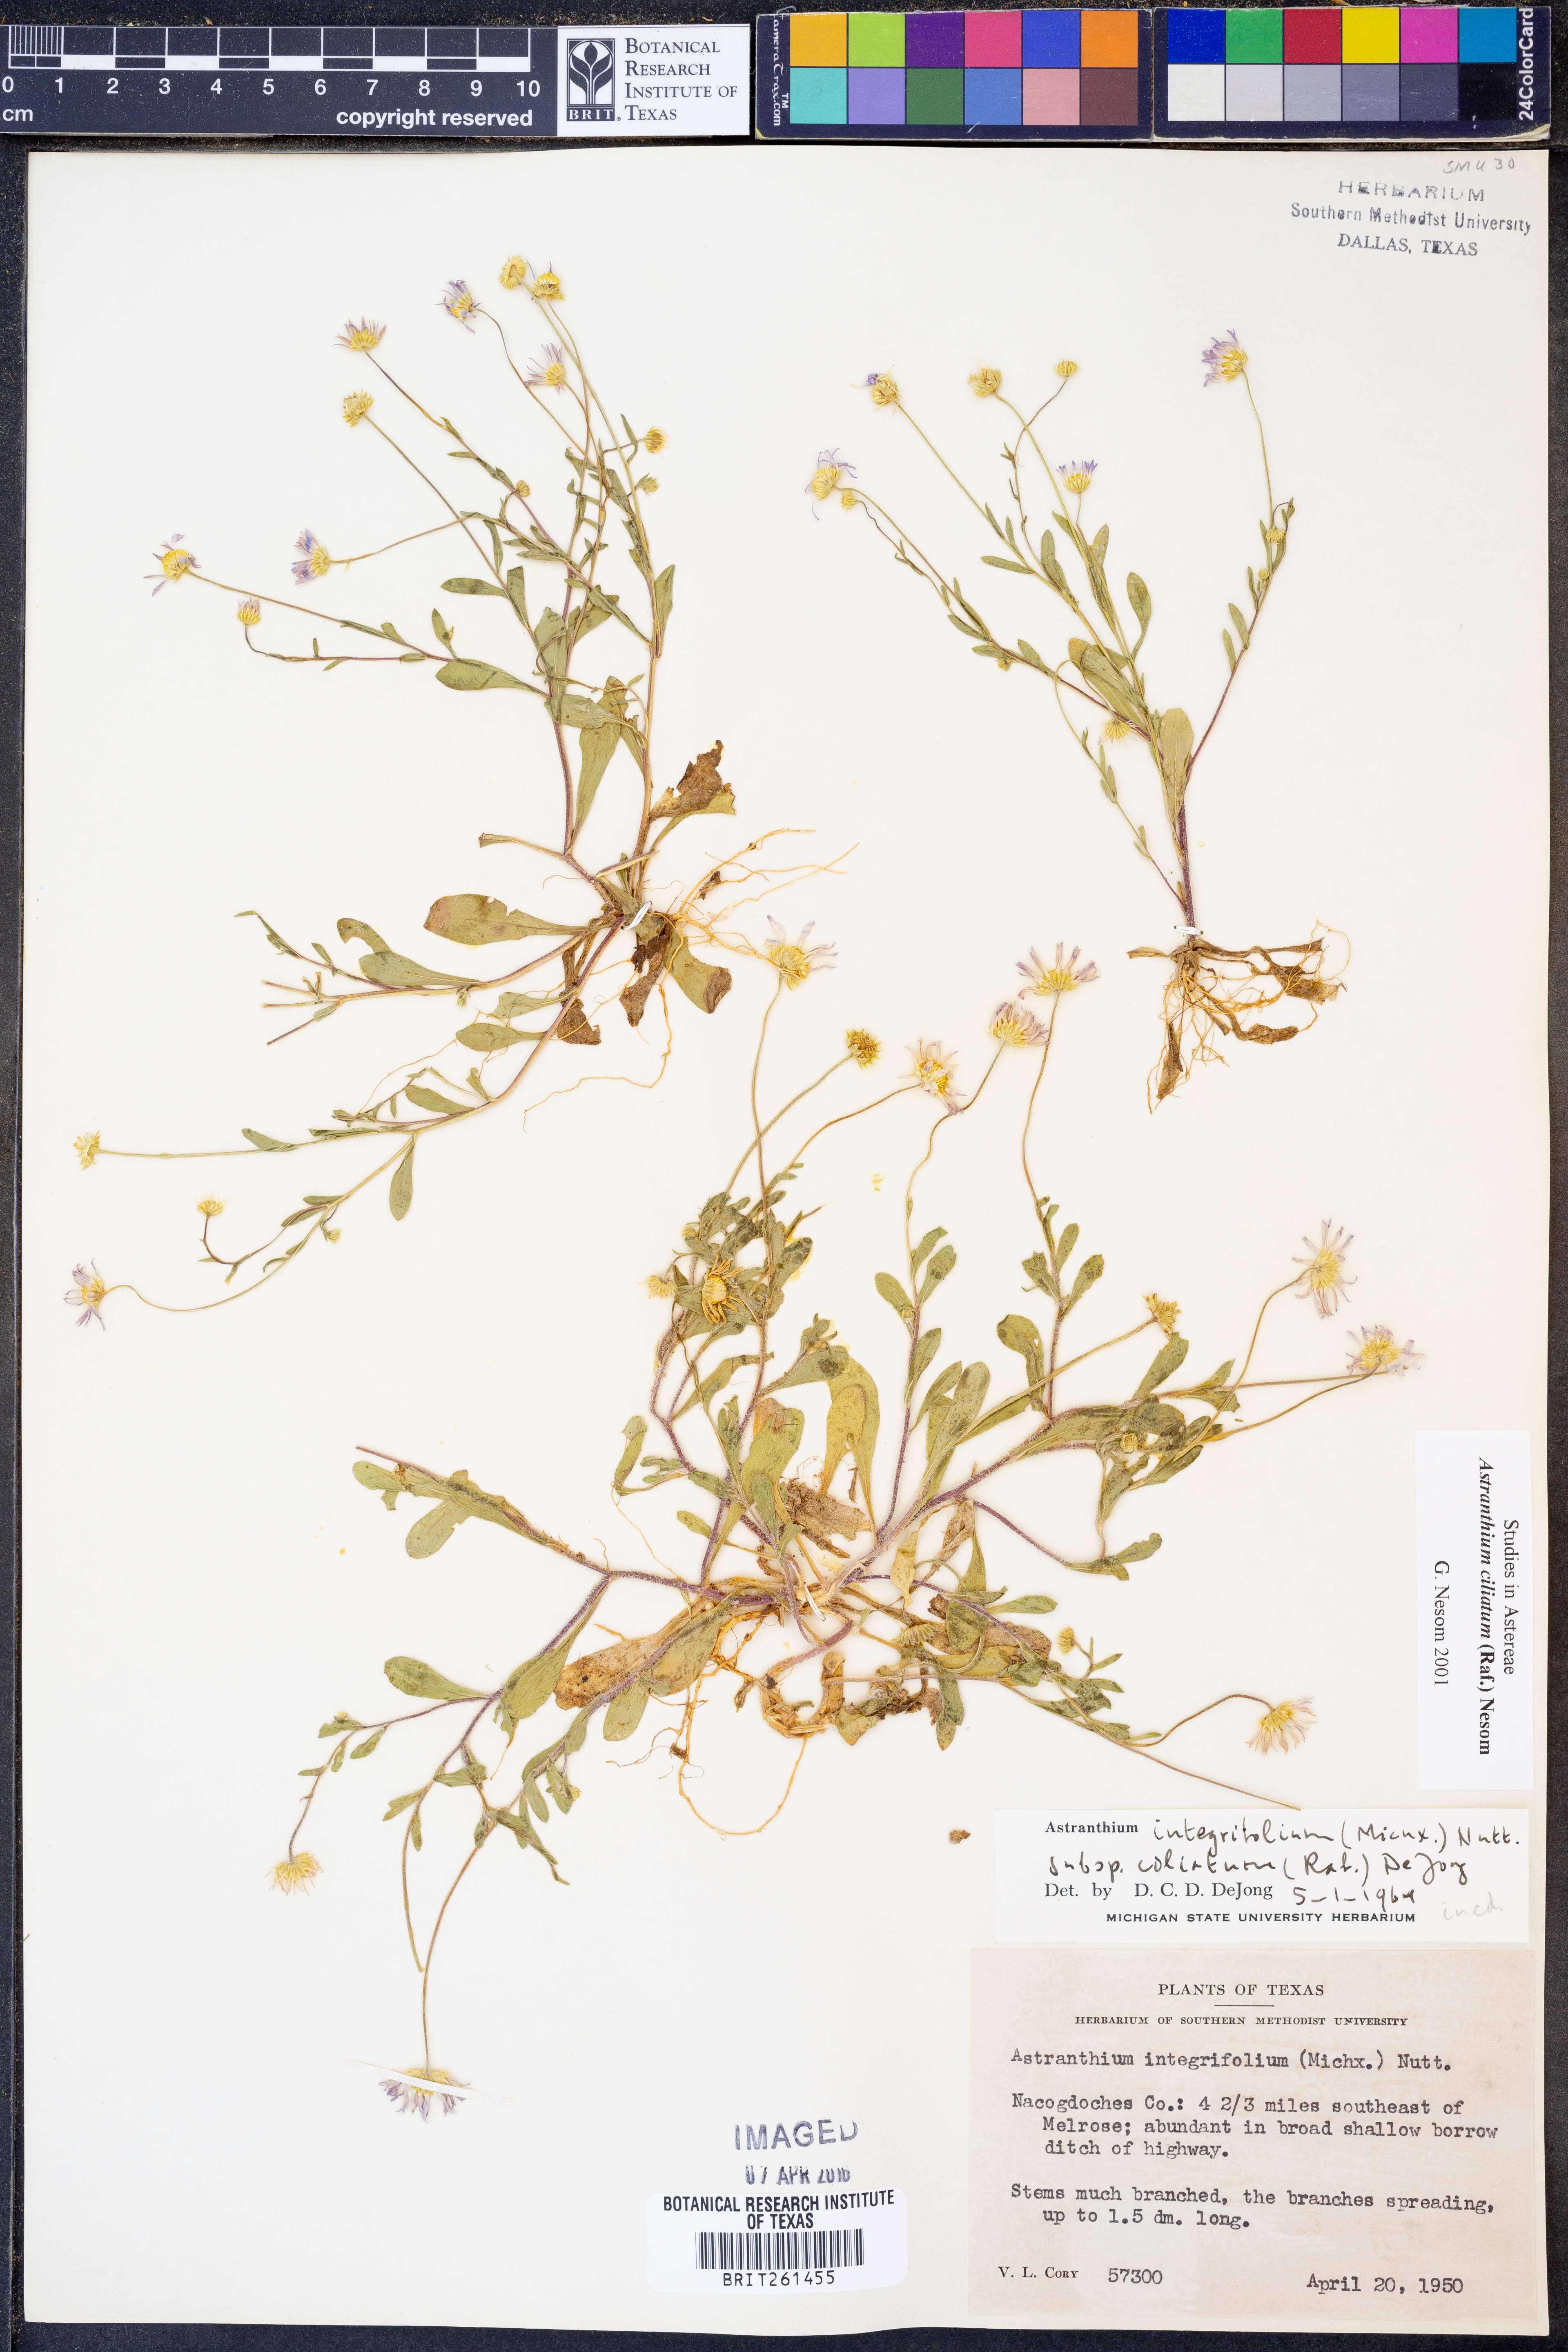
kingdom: Plantae
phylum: Tracheophyta
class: Magnoliopsida
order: Asterales
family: Asteraceae
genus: Astranthium
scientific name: Astranthium ciliatum
